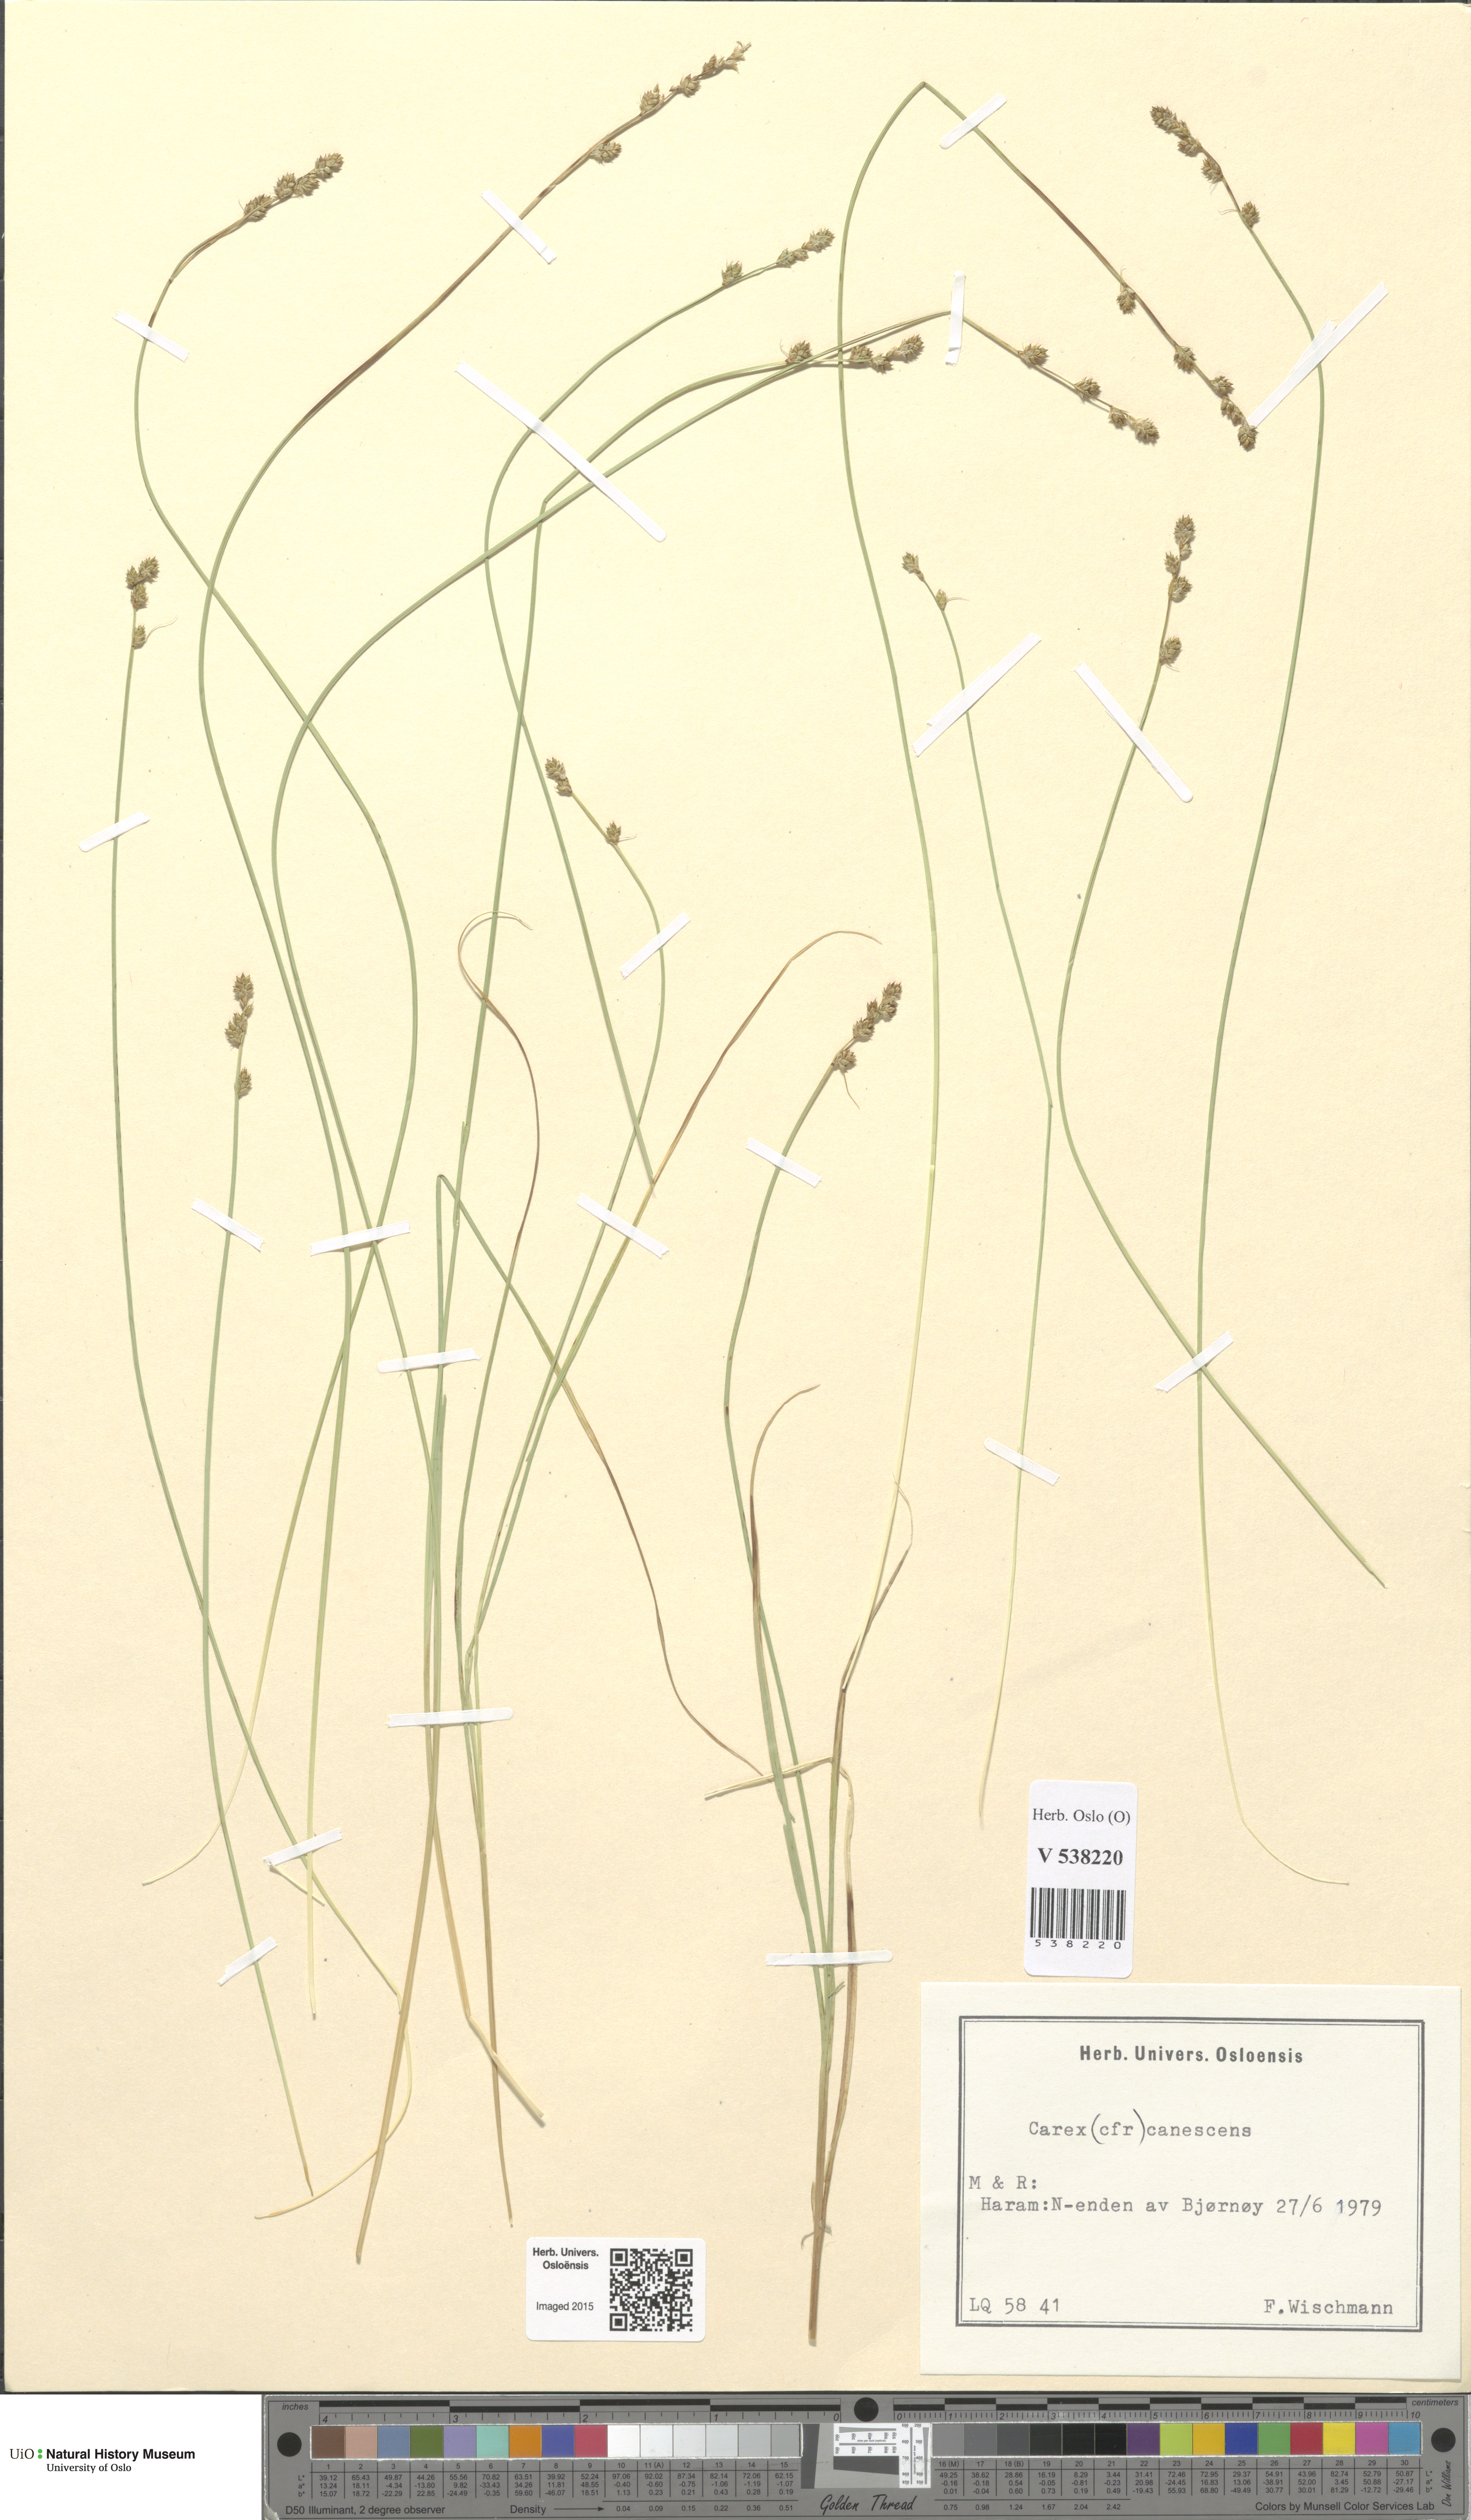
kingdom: Plantae
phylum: Tracheophyta
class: Liliopsida
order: Poales
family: Cyperaceae
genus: Carex
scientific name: Carex canescens
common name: White sedge
